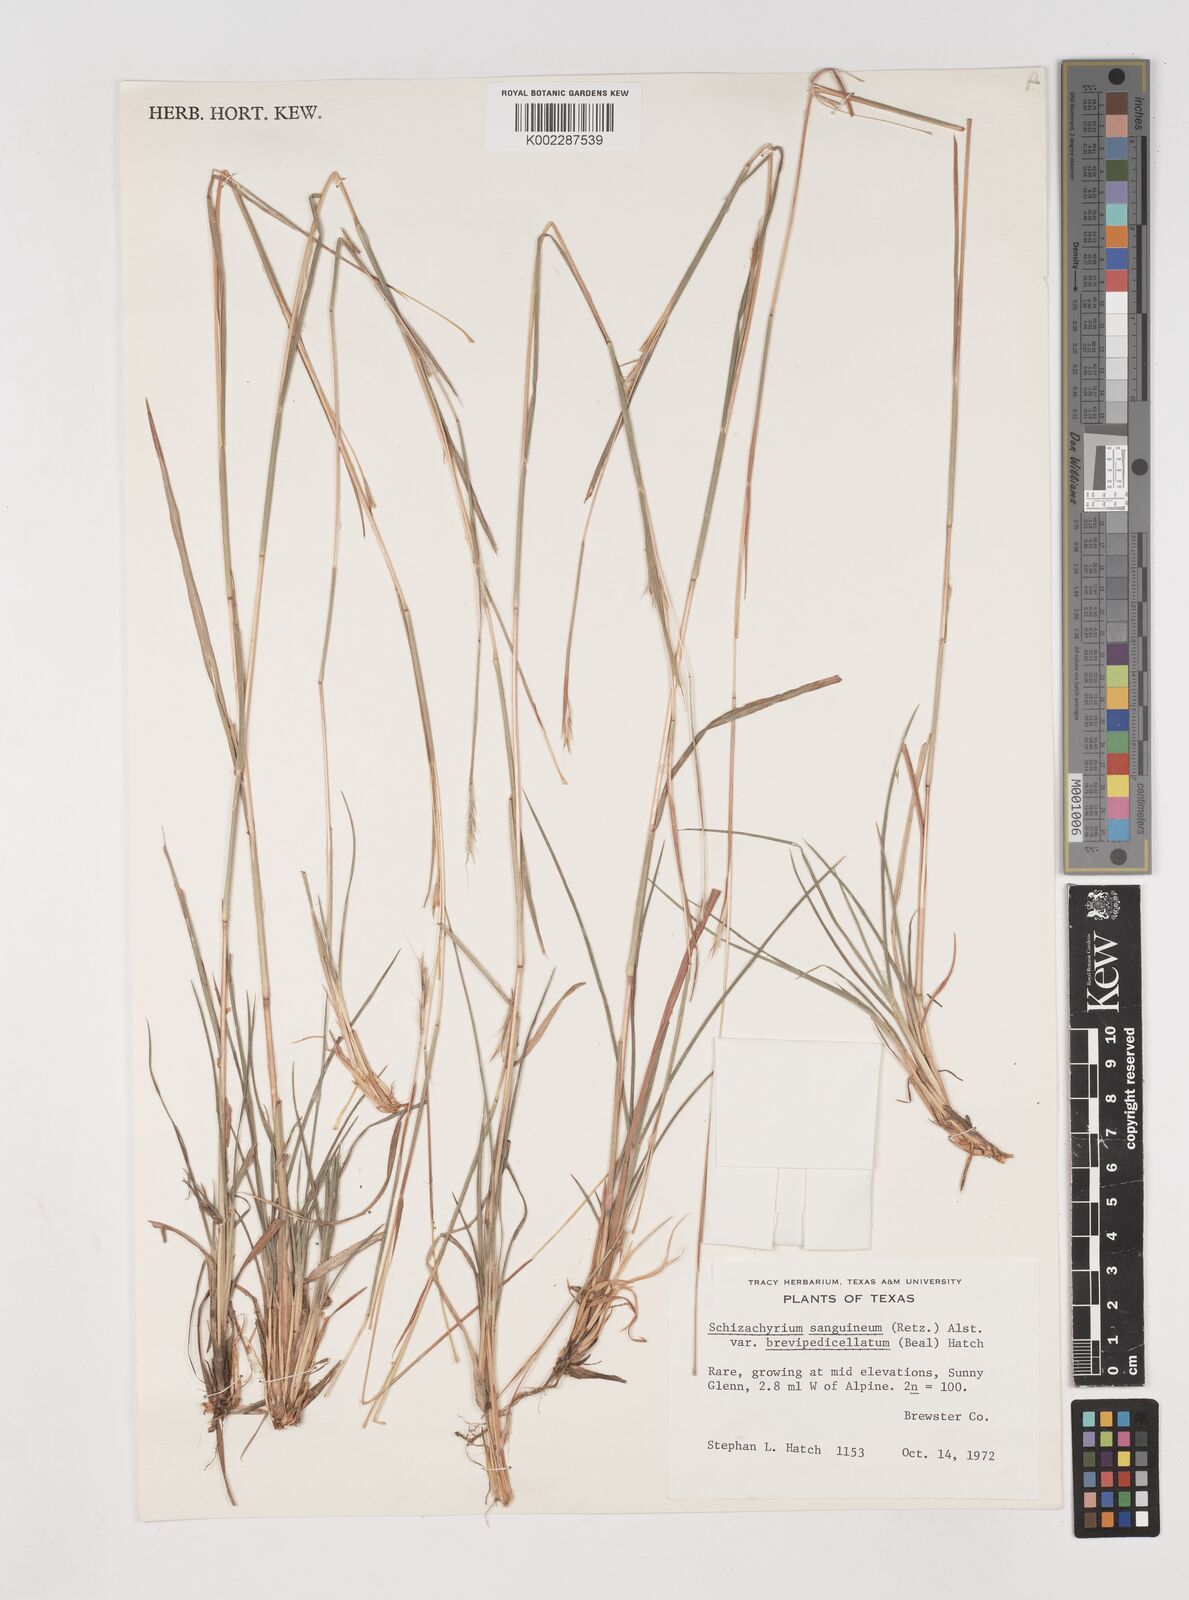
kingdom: Plantae
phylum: Tracheophyta
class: Liliopsida
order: Poales
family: Poaceae
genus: Schizachyrium
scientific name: Schizachyrium sanguineum
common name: Crimson bluestem
